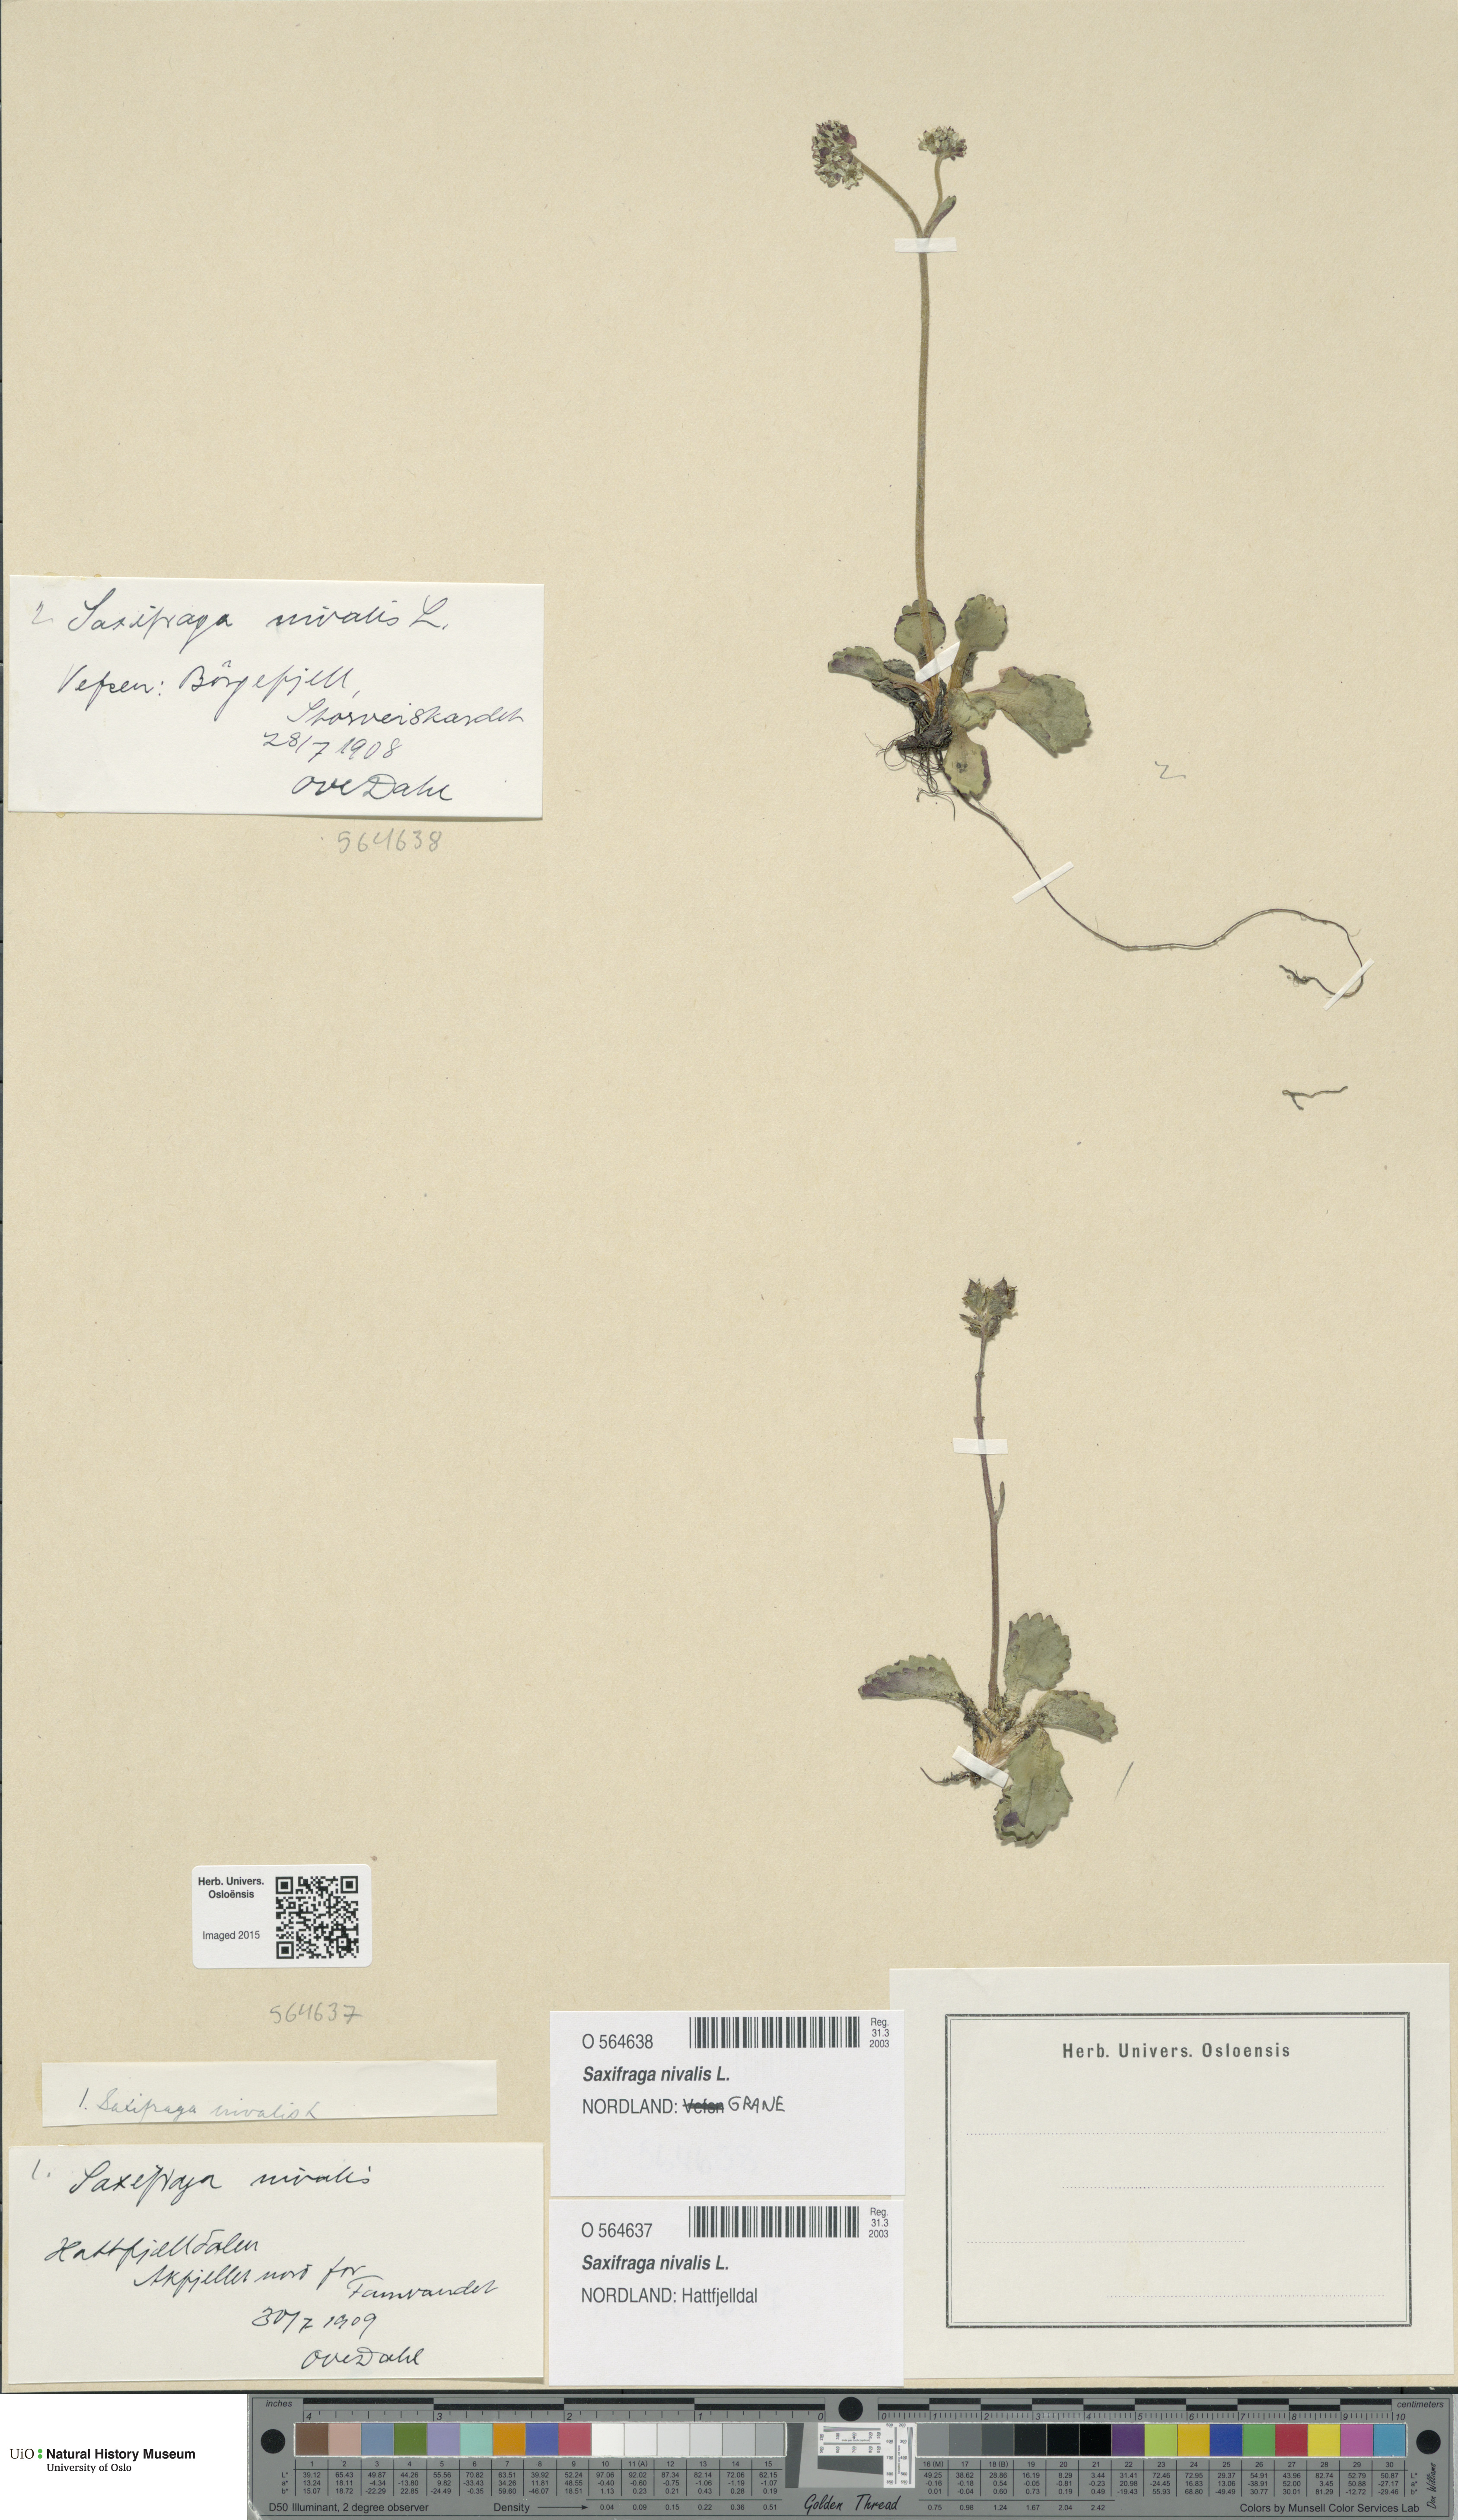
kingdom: Plantae
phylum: Tracheophyta
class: Magnoliopsida
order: Saxifragales
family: Saxifragaceae
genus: Micranthes
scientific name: Micranthes nivalis
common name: Alpine saxifrage
